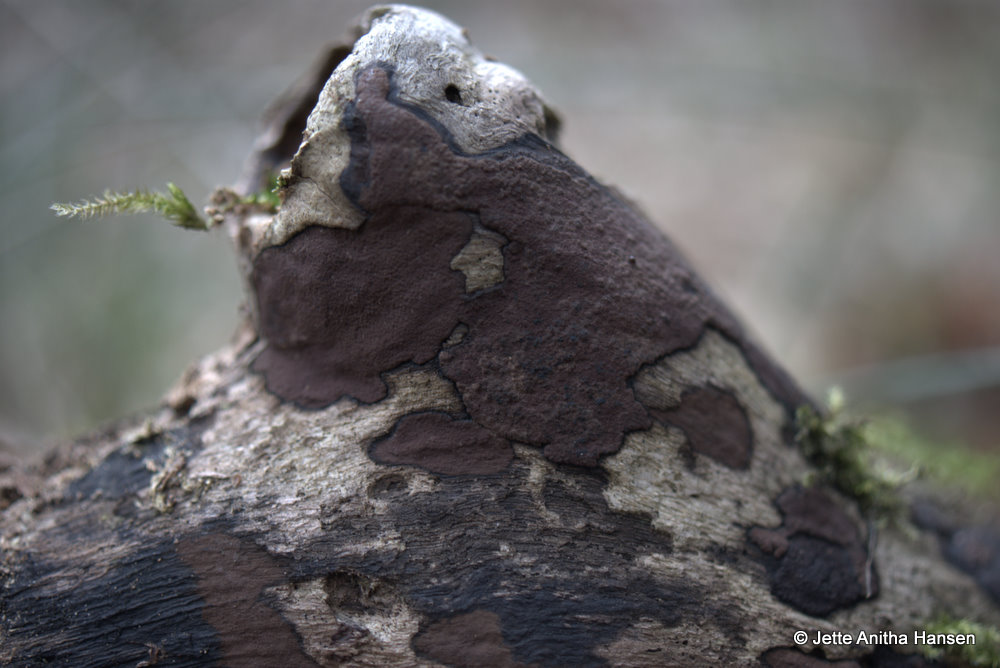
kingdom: Fungi
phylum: Ascomycota
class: Sordariomycetes
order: Xylariales
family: Hypoxylaceae
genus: Hypoxylon
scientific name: Hypoxylon petriniae
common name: nedsænket kulbær
